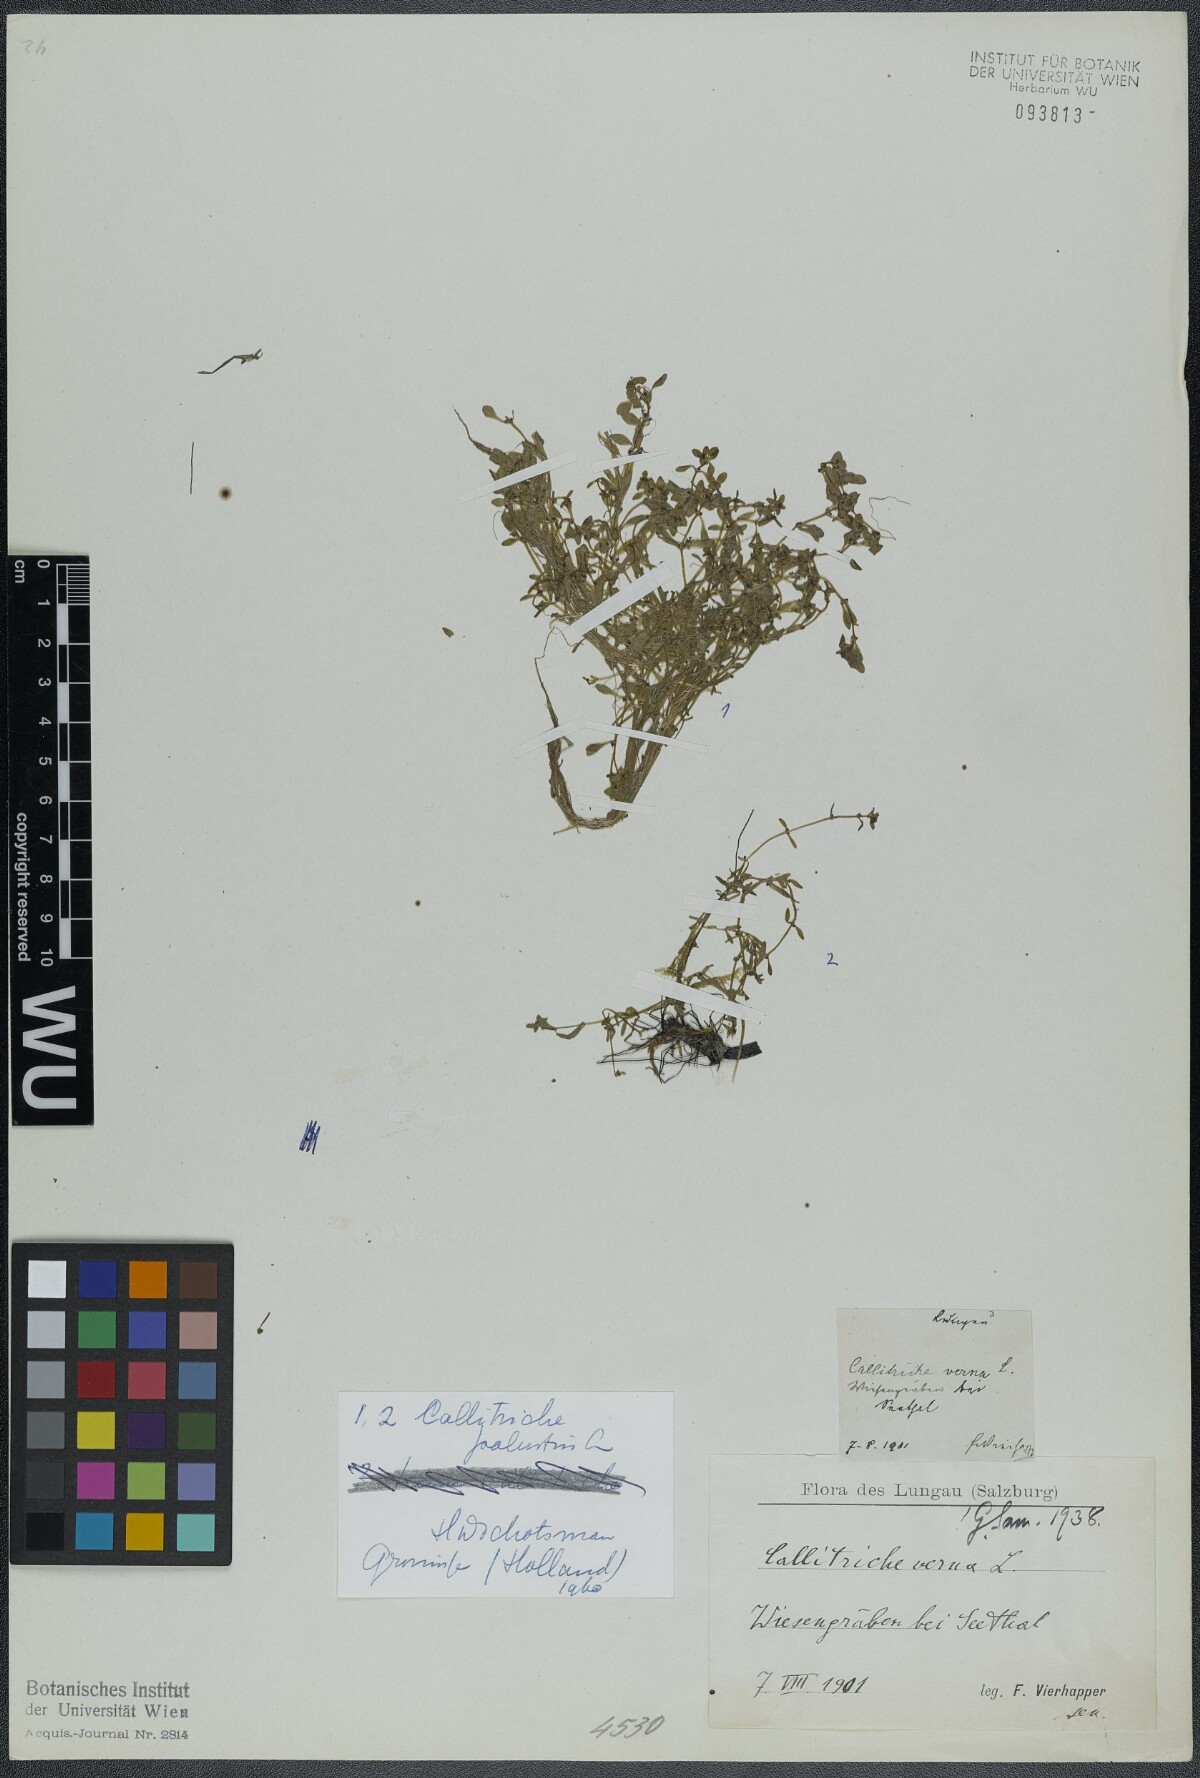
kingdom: Plantae
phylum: Tracheophyta
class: Magnoliopsida
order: Lamiales
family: Plantaginaceae
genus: Callitriche
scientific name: Callitriche palustris
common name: Spring water-starwort
